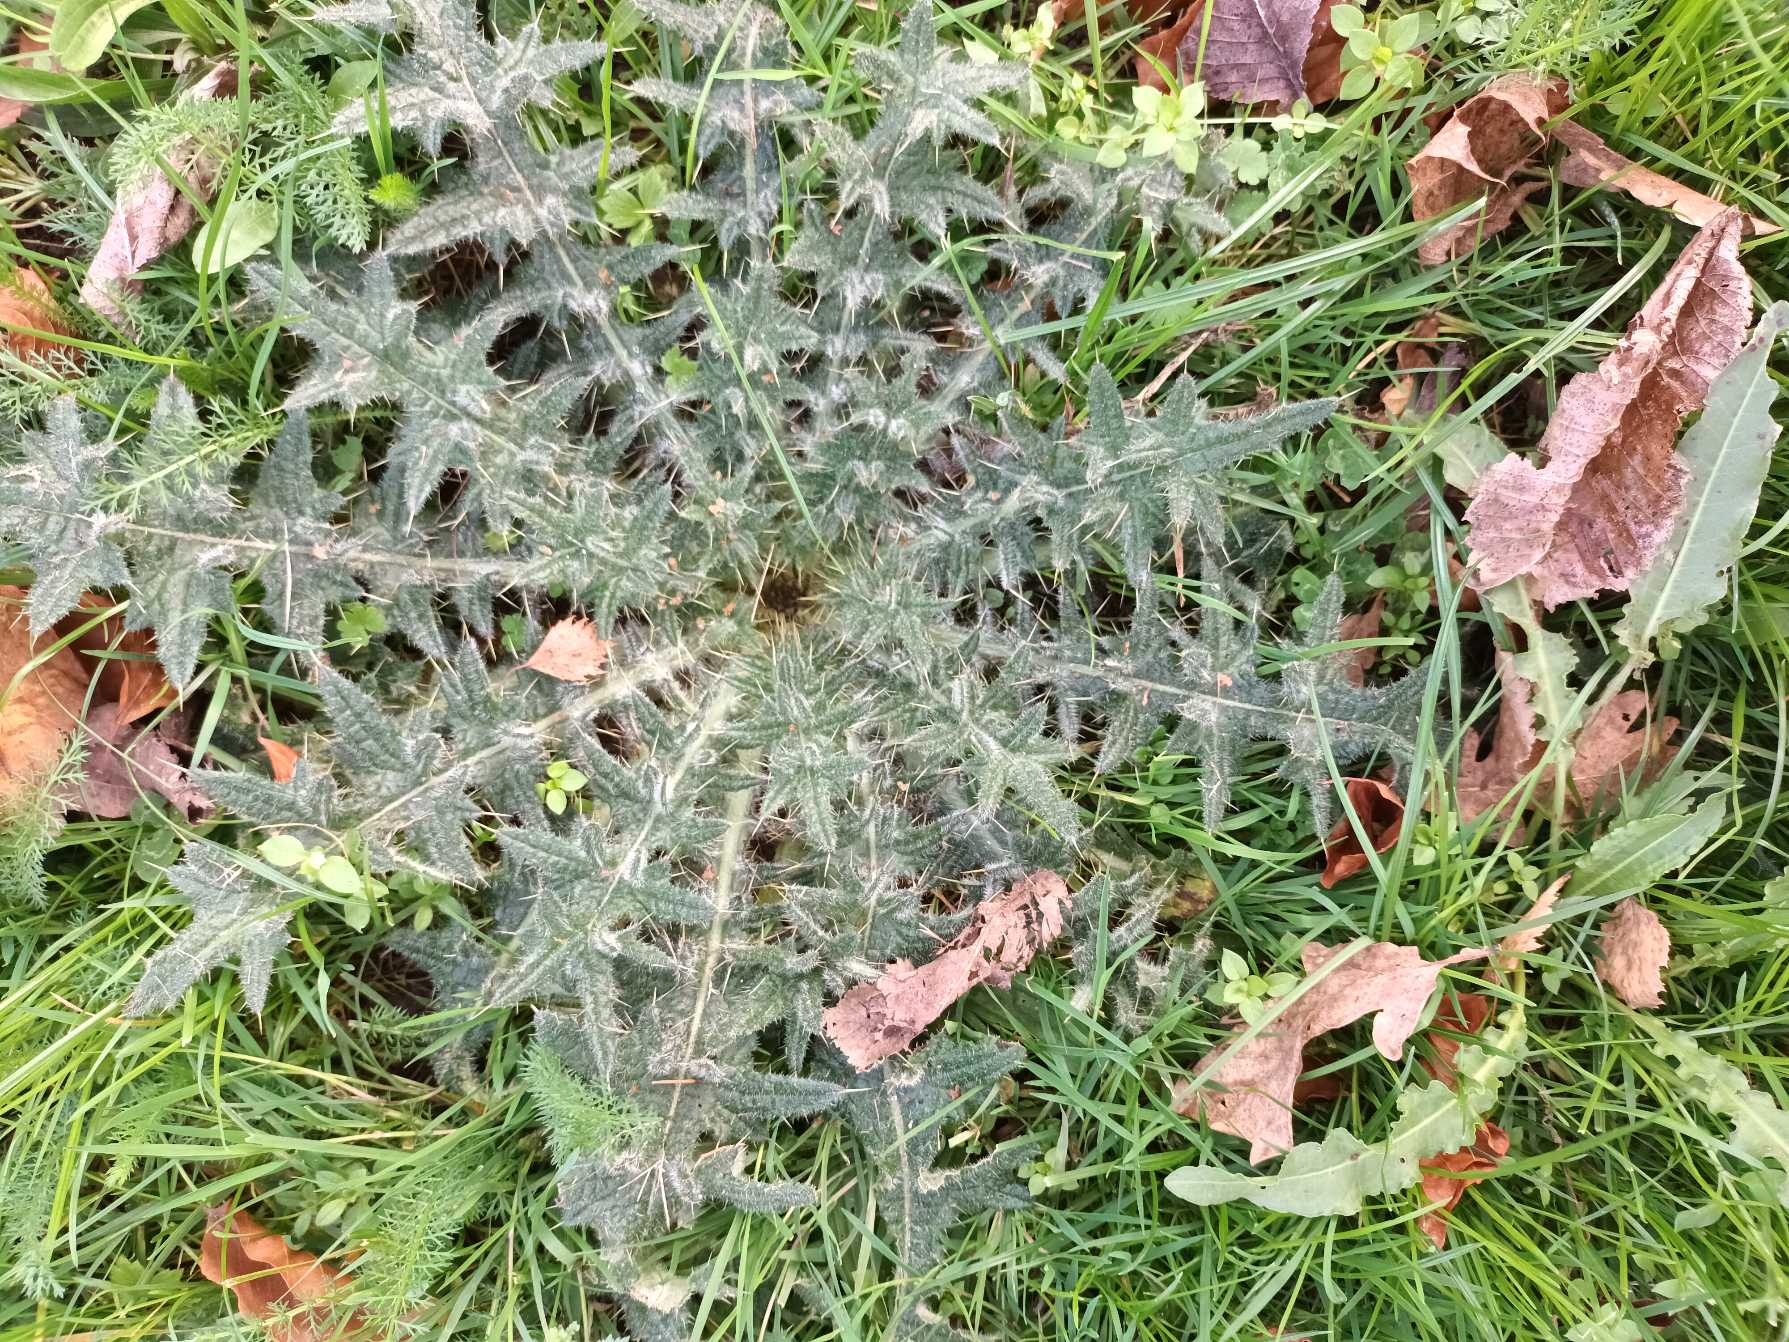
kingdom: Plantae
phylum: Tracheophyta
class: Magnoliopsida
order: Asterales
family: Asteraceae
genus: Cirsium
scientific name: Cirsium vulgare
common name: Horse-tidsel
